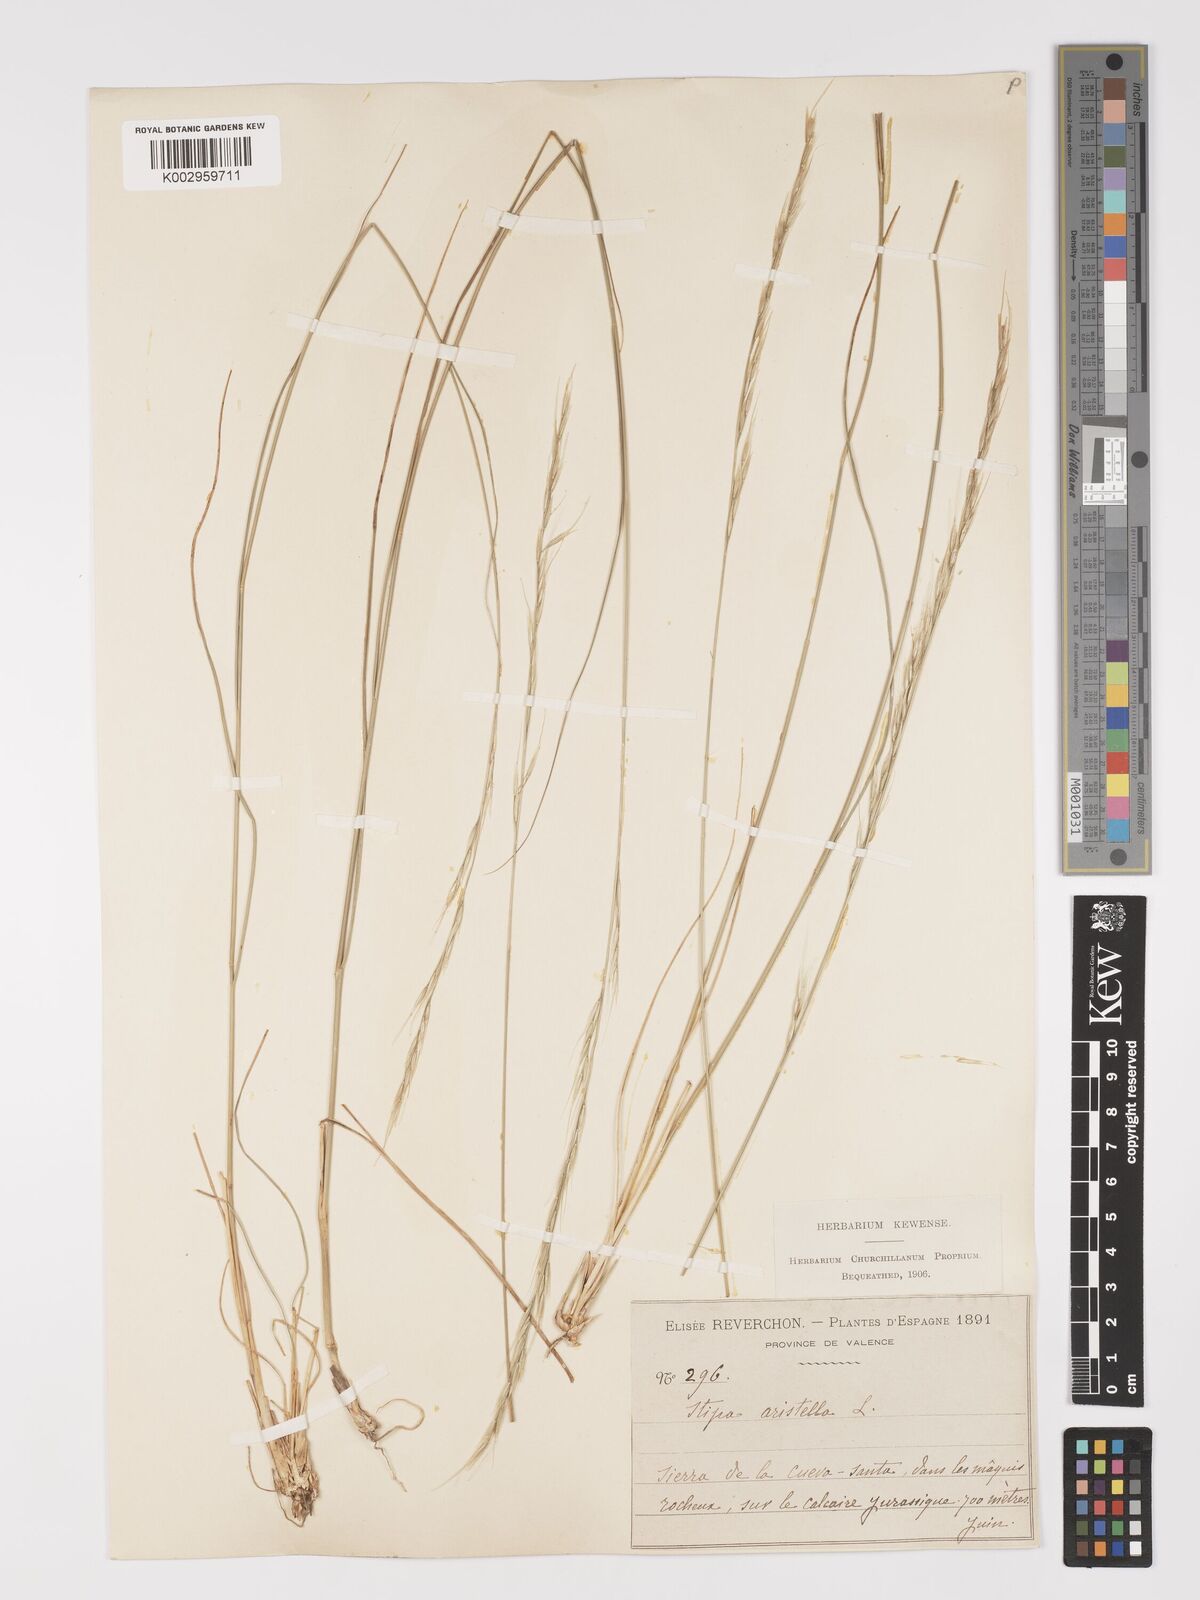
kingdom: Plantae
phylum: Tracheophyta
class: Liliopsida
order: Poales
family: Poaceae
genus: Achnatherum
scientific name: Achnatherum bromoides
